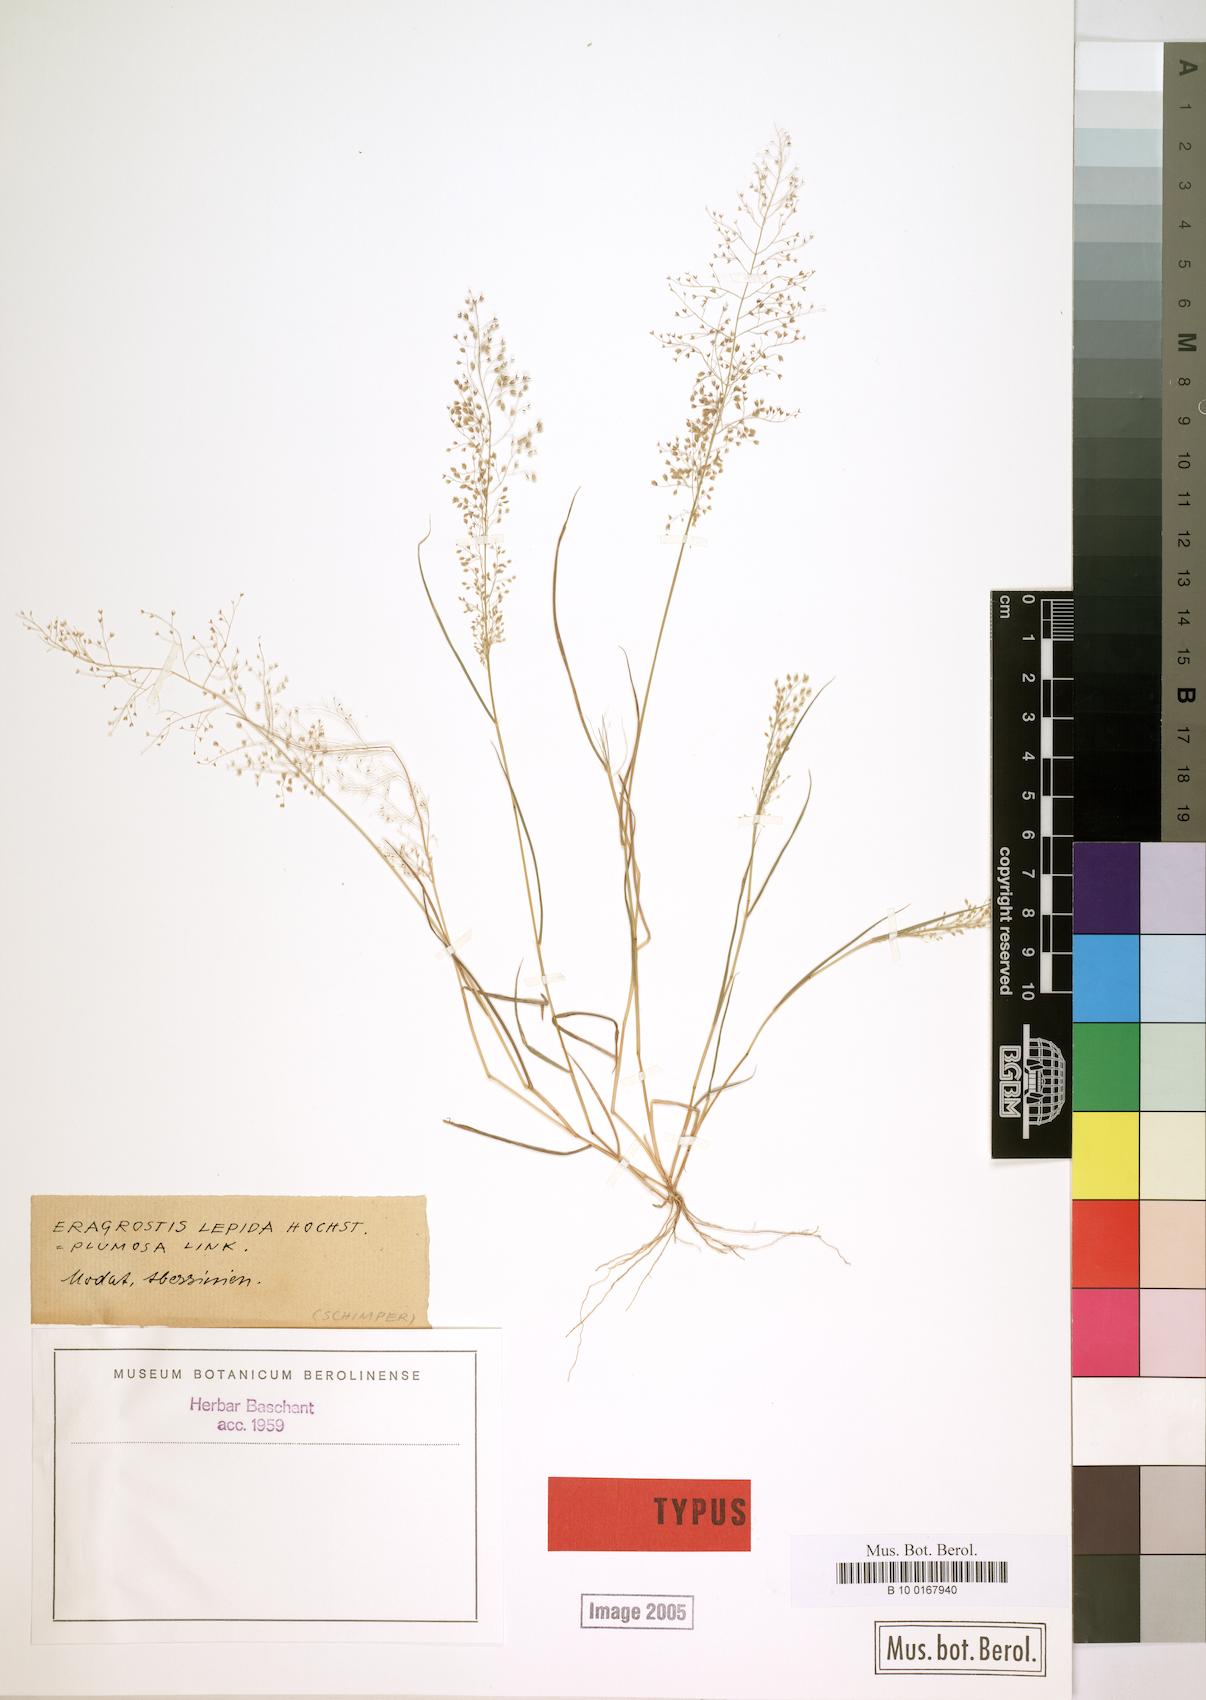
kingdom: Plantae
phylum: Tracheophyta
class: Liliopsida
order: Poales
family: Poaceae
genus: Eragrostis
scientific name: Eragrostis lepida
